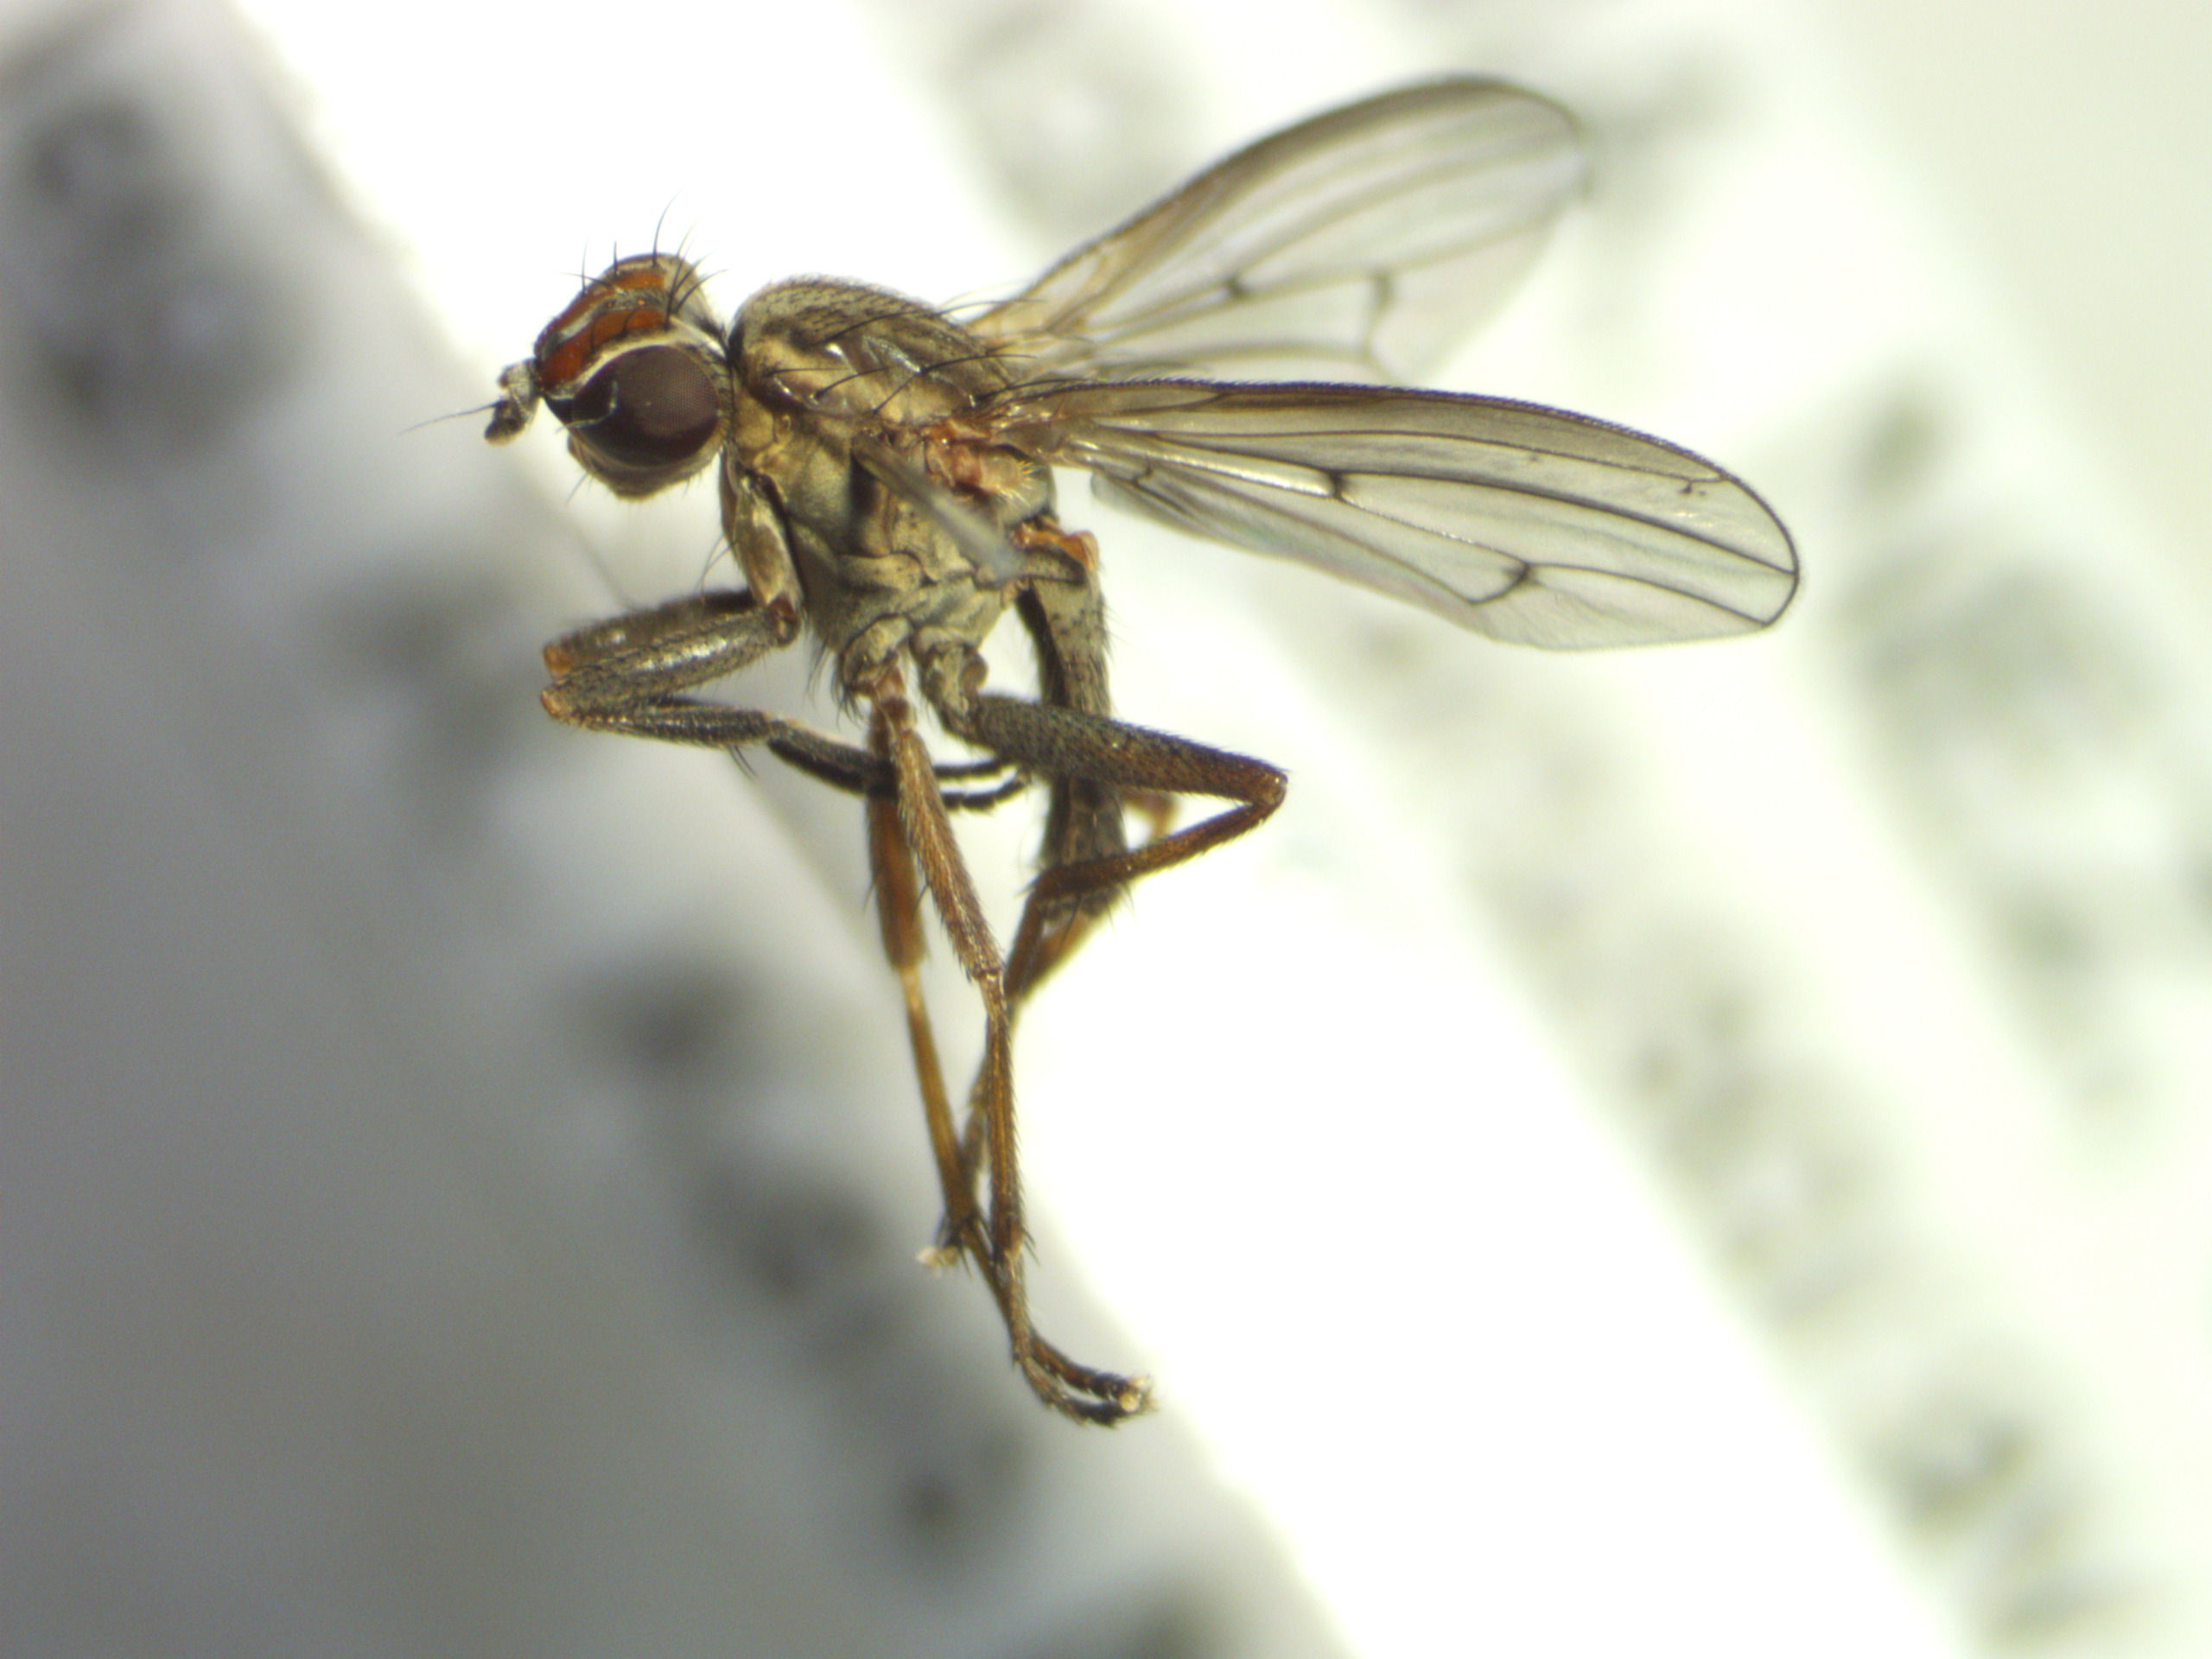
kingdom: Animalia
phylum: Arthropoda
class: Insecta
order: Diptera
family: Sciomyzidae
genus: Pherbellia
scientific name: Pherbellia cinerella
